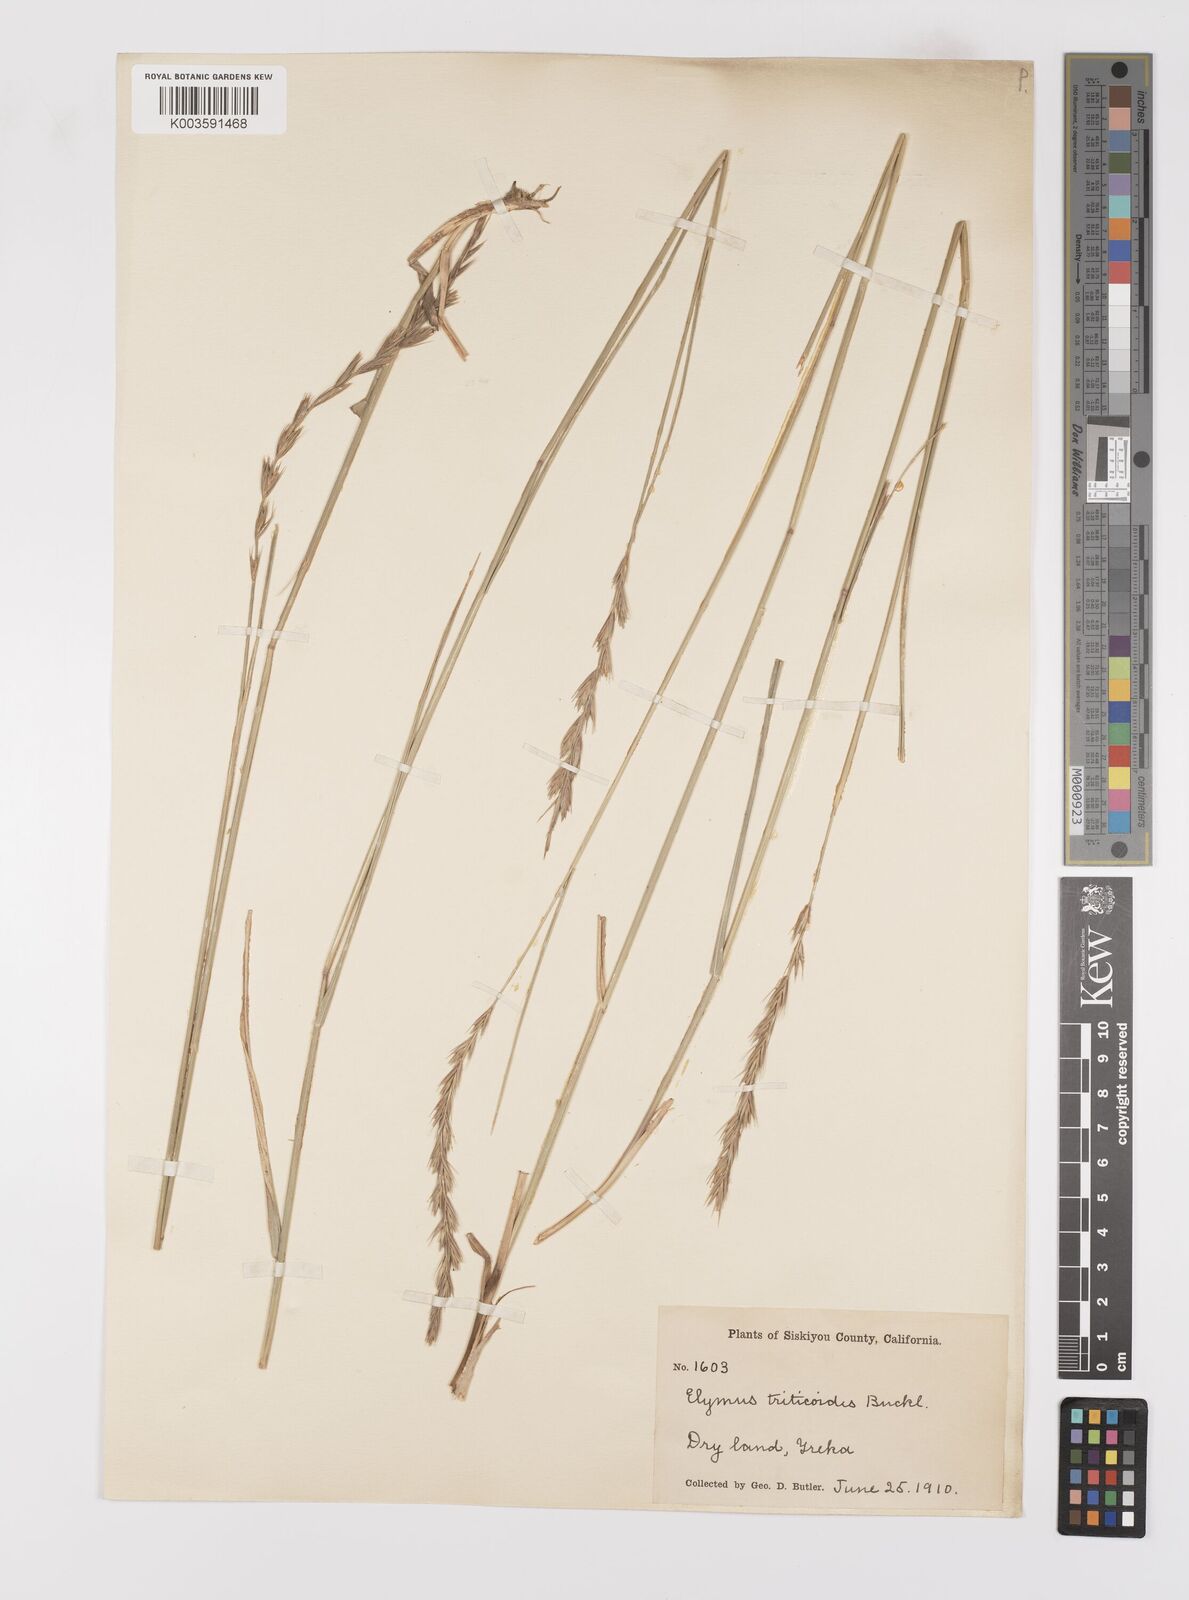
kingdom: Plantae
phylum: Tracheophyta
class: Liliopsida
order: Poales
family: Poaceae
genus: Leymus
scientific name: Leymus triticoides
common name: Beardless wild rye
